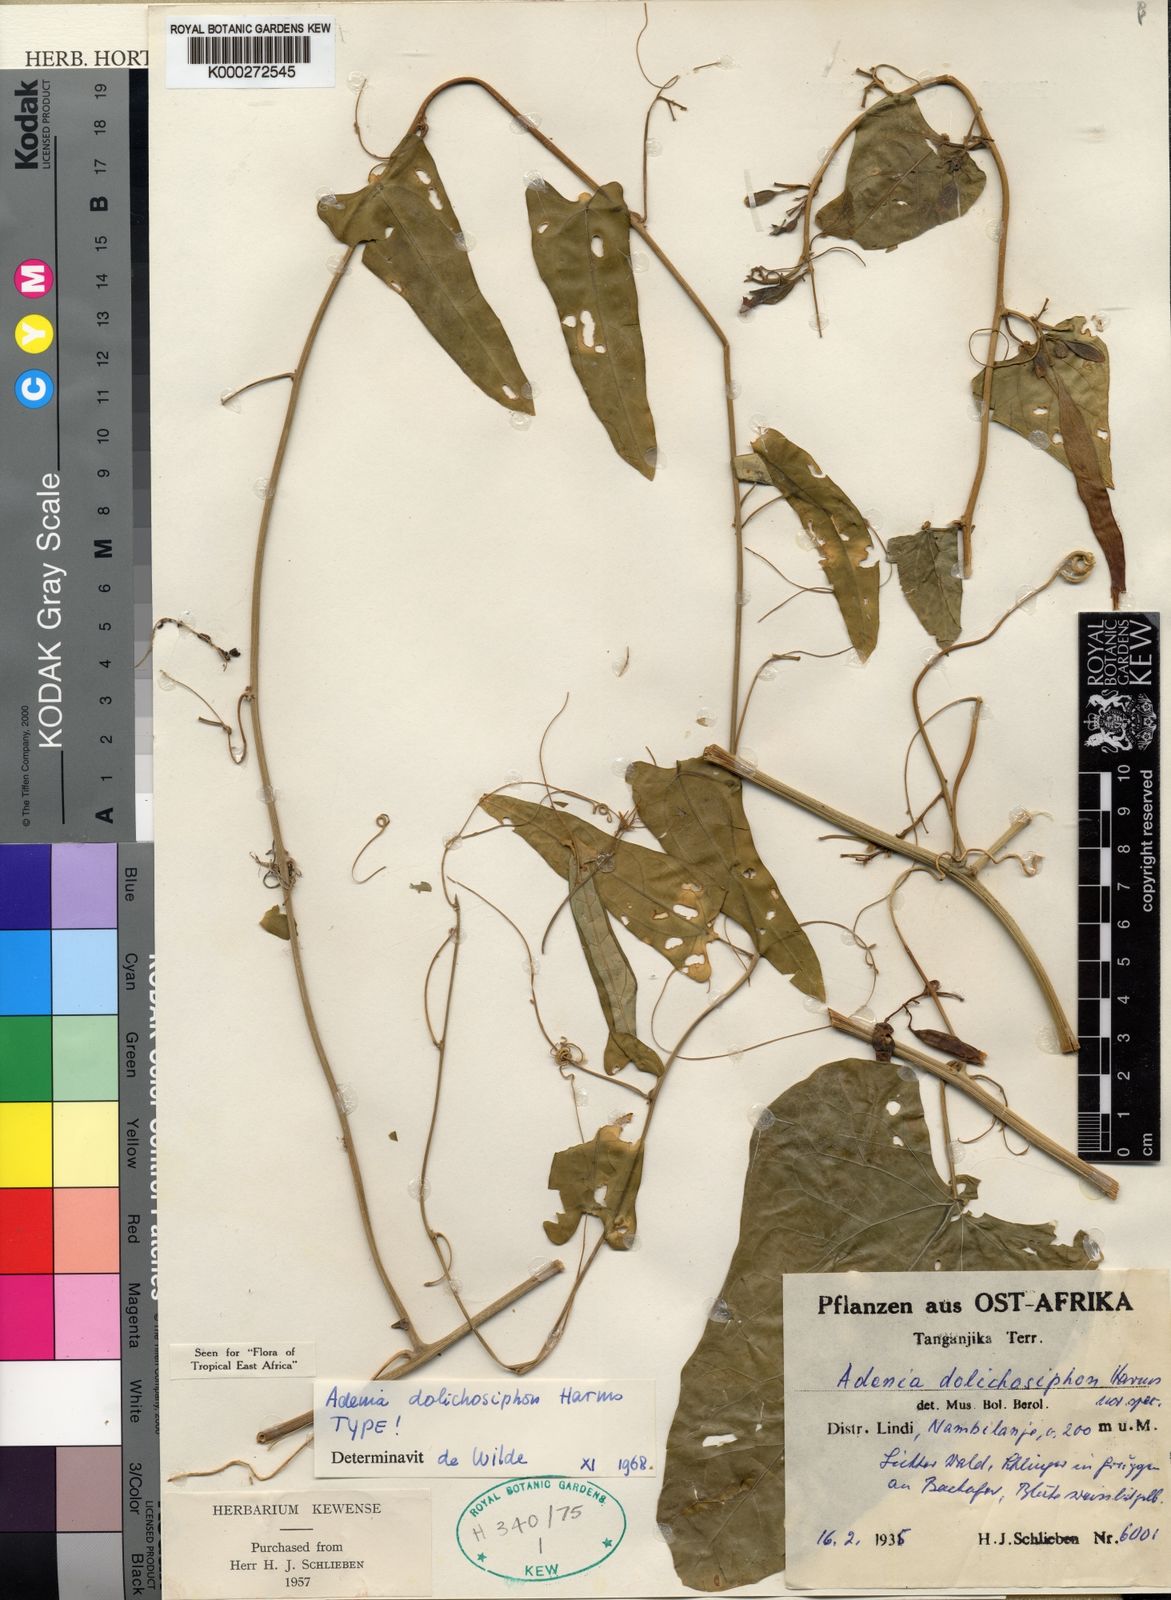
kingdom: Plantae
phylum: Tracheophyta
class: Magnoliopsida
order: Malpighiales
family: Passifloraceae
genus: Adenia
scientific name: Adenia dolichosiphon
